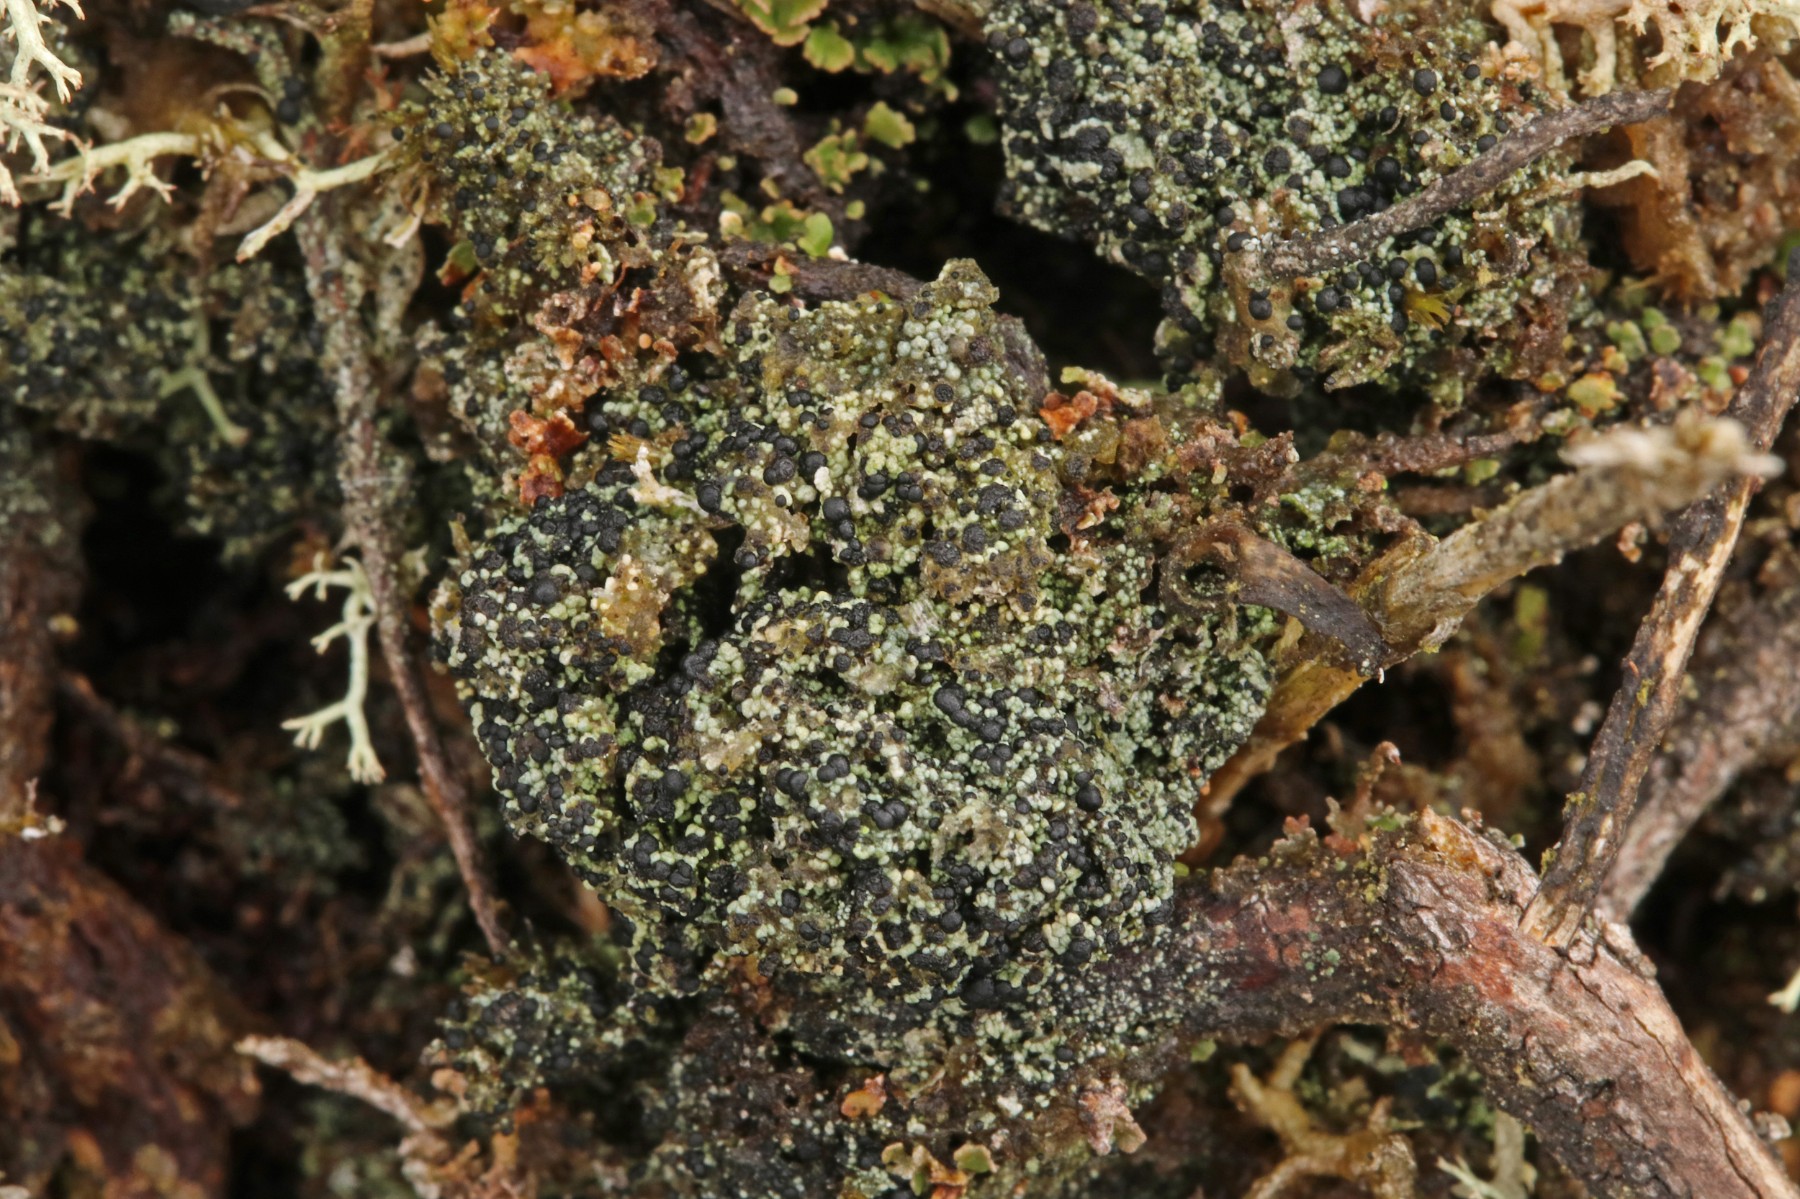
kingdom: Fungi
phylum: Ascomycota
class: Lecanoromycetes
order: Lecanorales
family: Byssolomataceae
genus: Micarea
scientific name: Micarea lignaria
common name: tørve-knaplav
